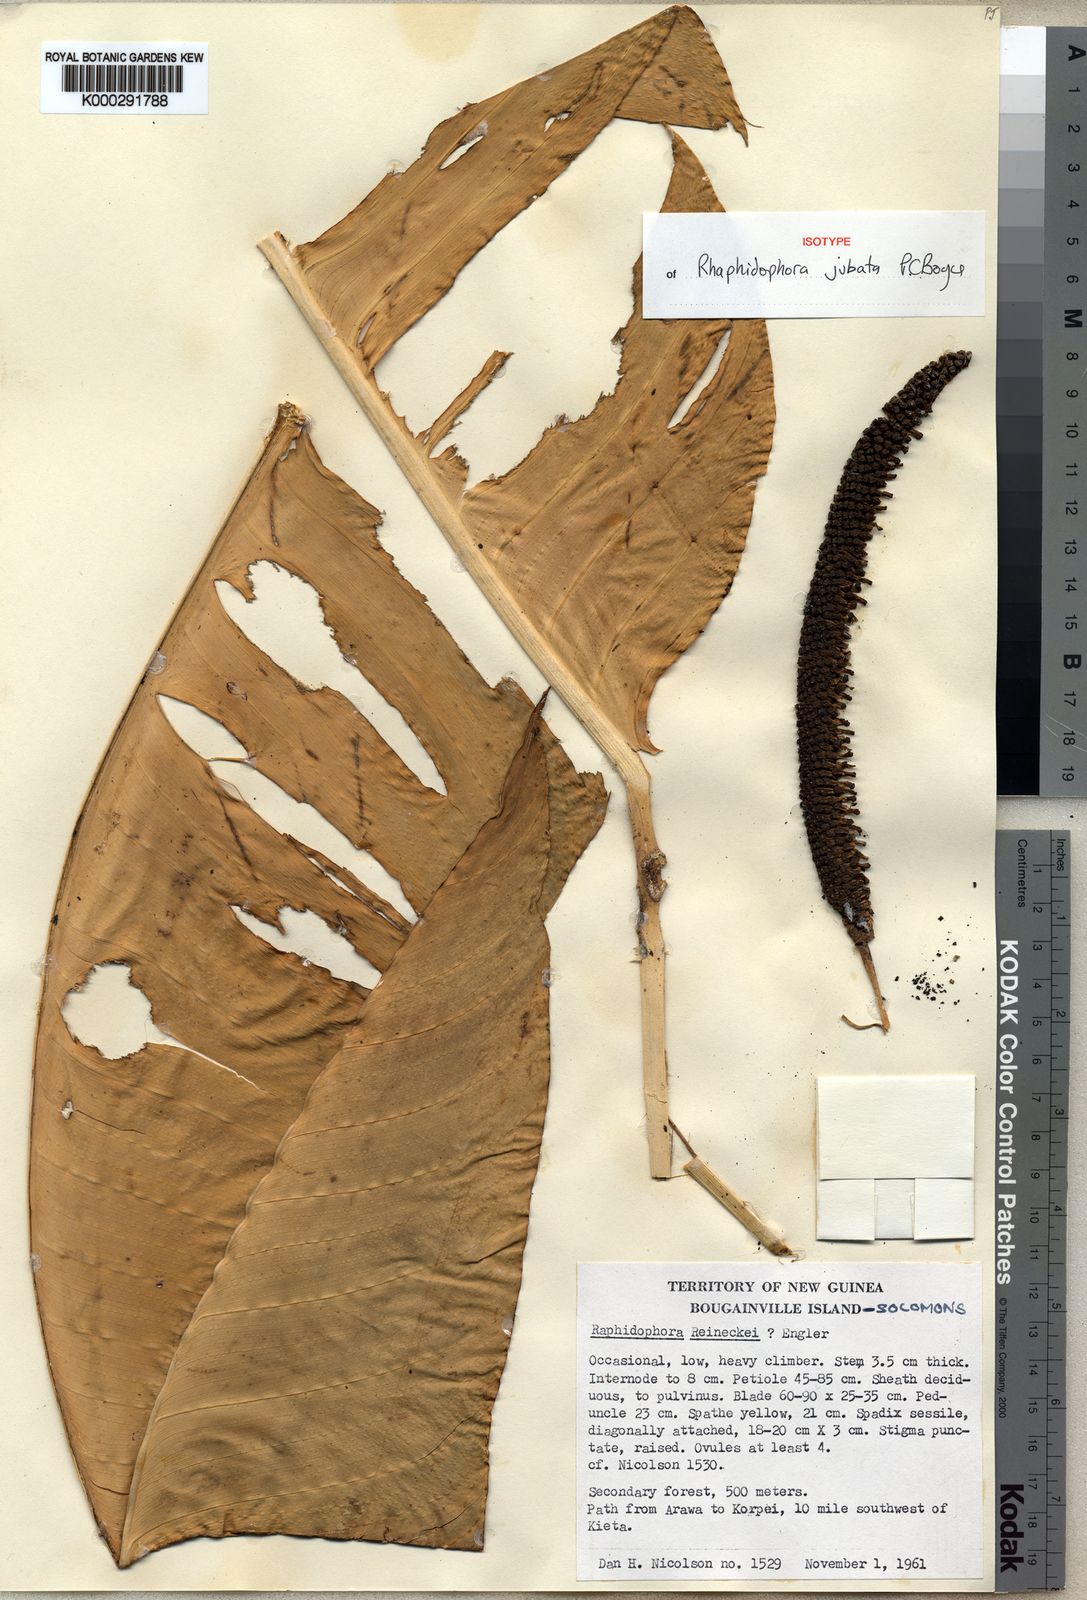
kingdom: Plantae
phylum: Tracheophyta
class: Liliopsida
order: Alismatales
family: Araceae
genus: Rhaphidophora
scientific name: Rhaphidophora jubata
